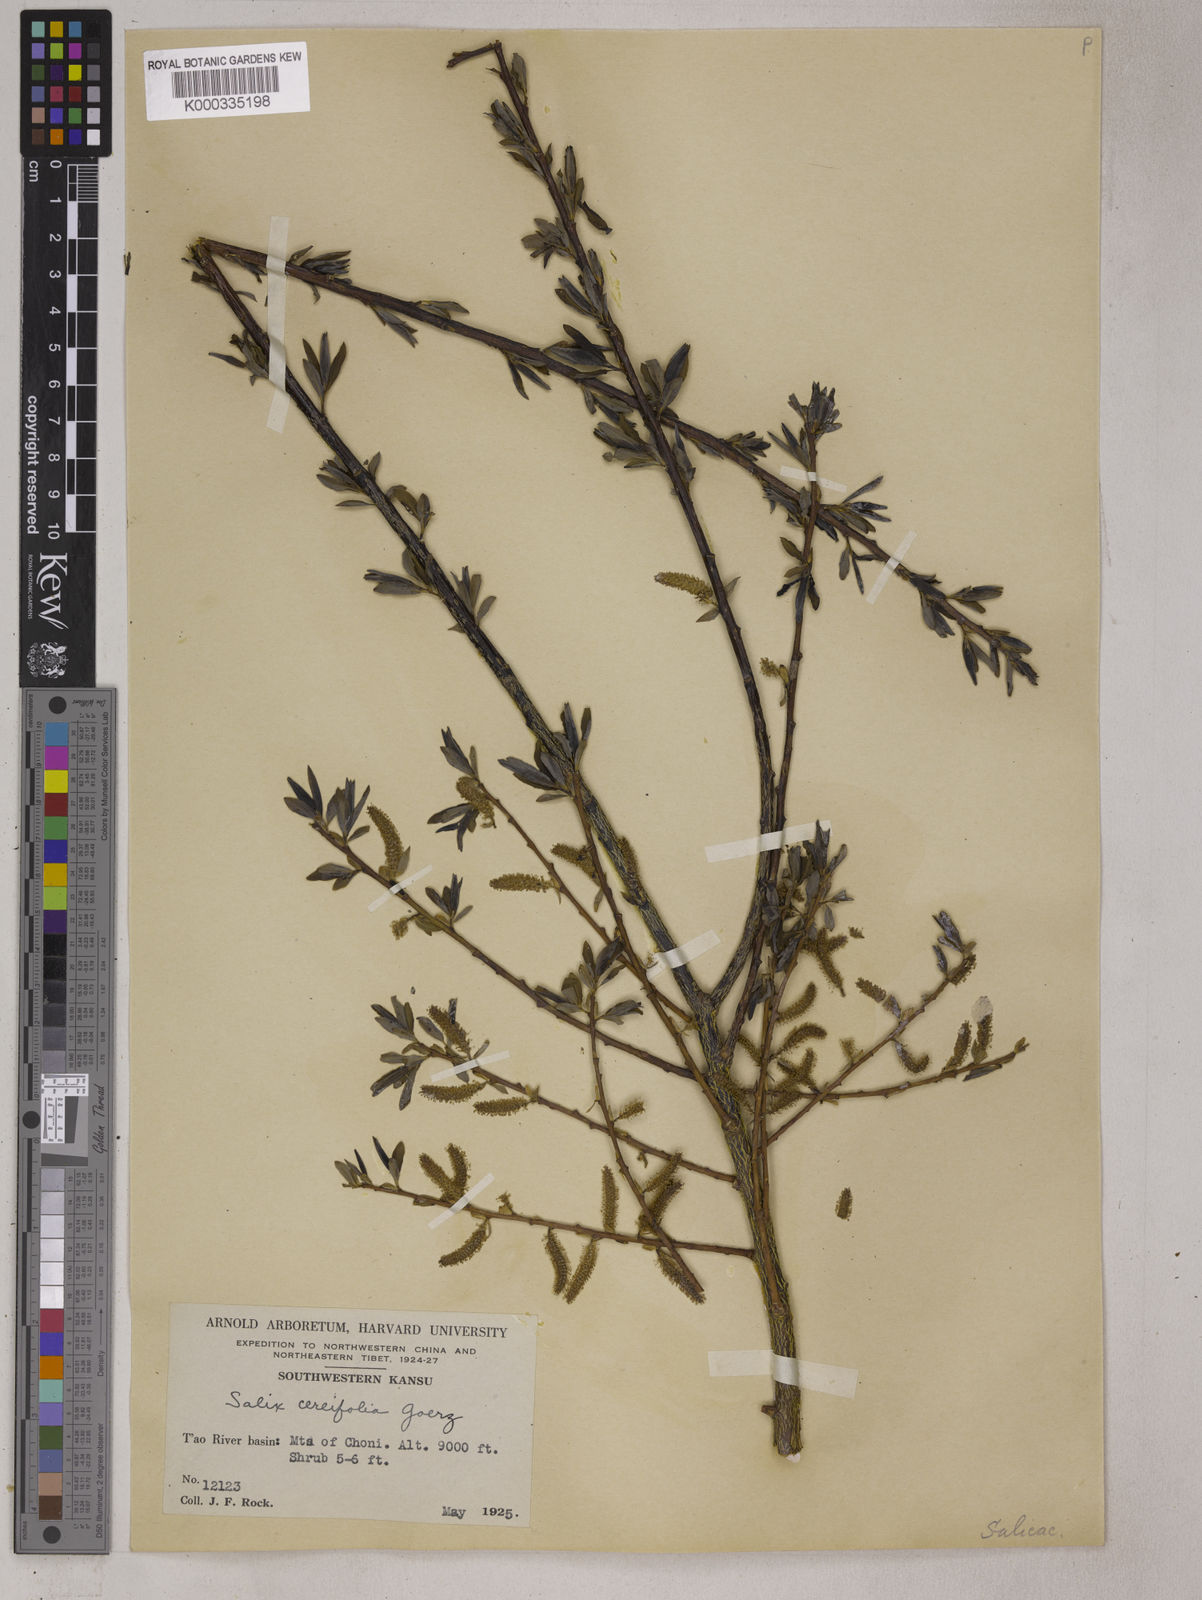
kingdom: Plantae
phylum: Tracheophyta
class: Magnoliopsida
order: Malpighiales
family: Salicaceae
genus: Salix
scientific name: Salix
